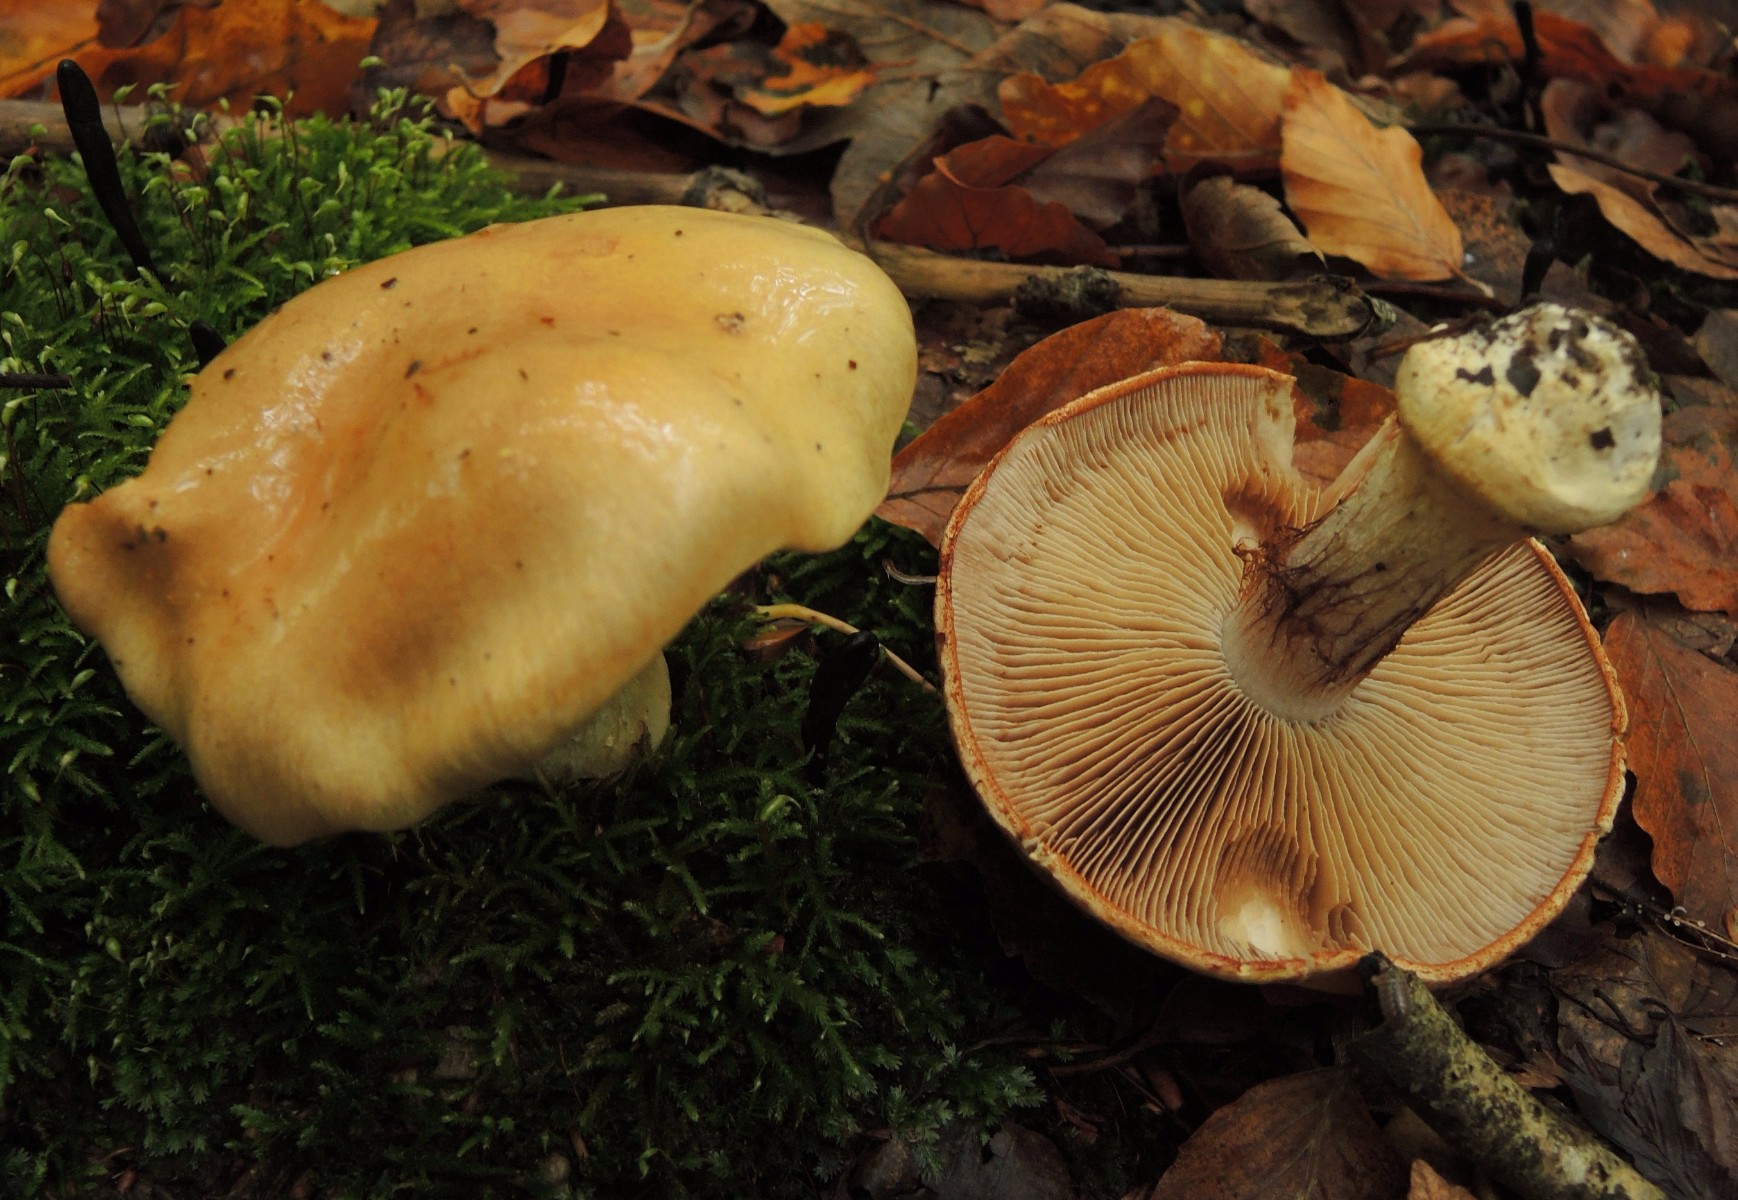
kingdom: Fungi
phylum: Basidiomycota
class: Agaricomycetes
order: Agaricales
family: Cortinariaceae
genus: Cortinarius
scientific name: Cortinarius anserinus
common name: bøge-slørhat
